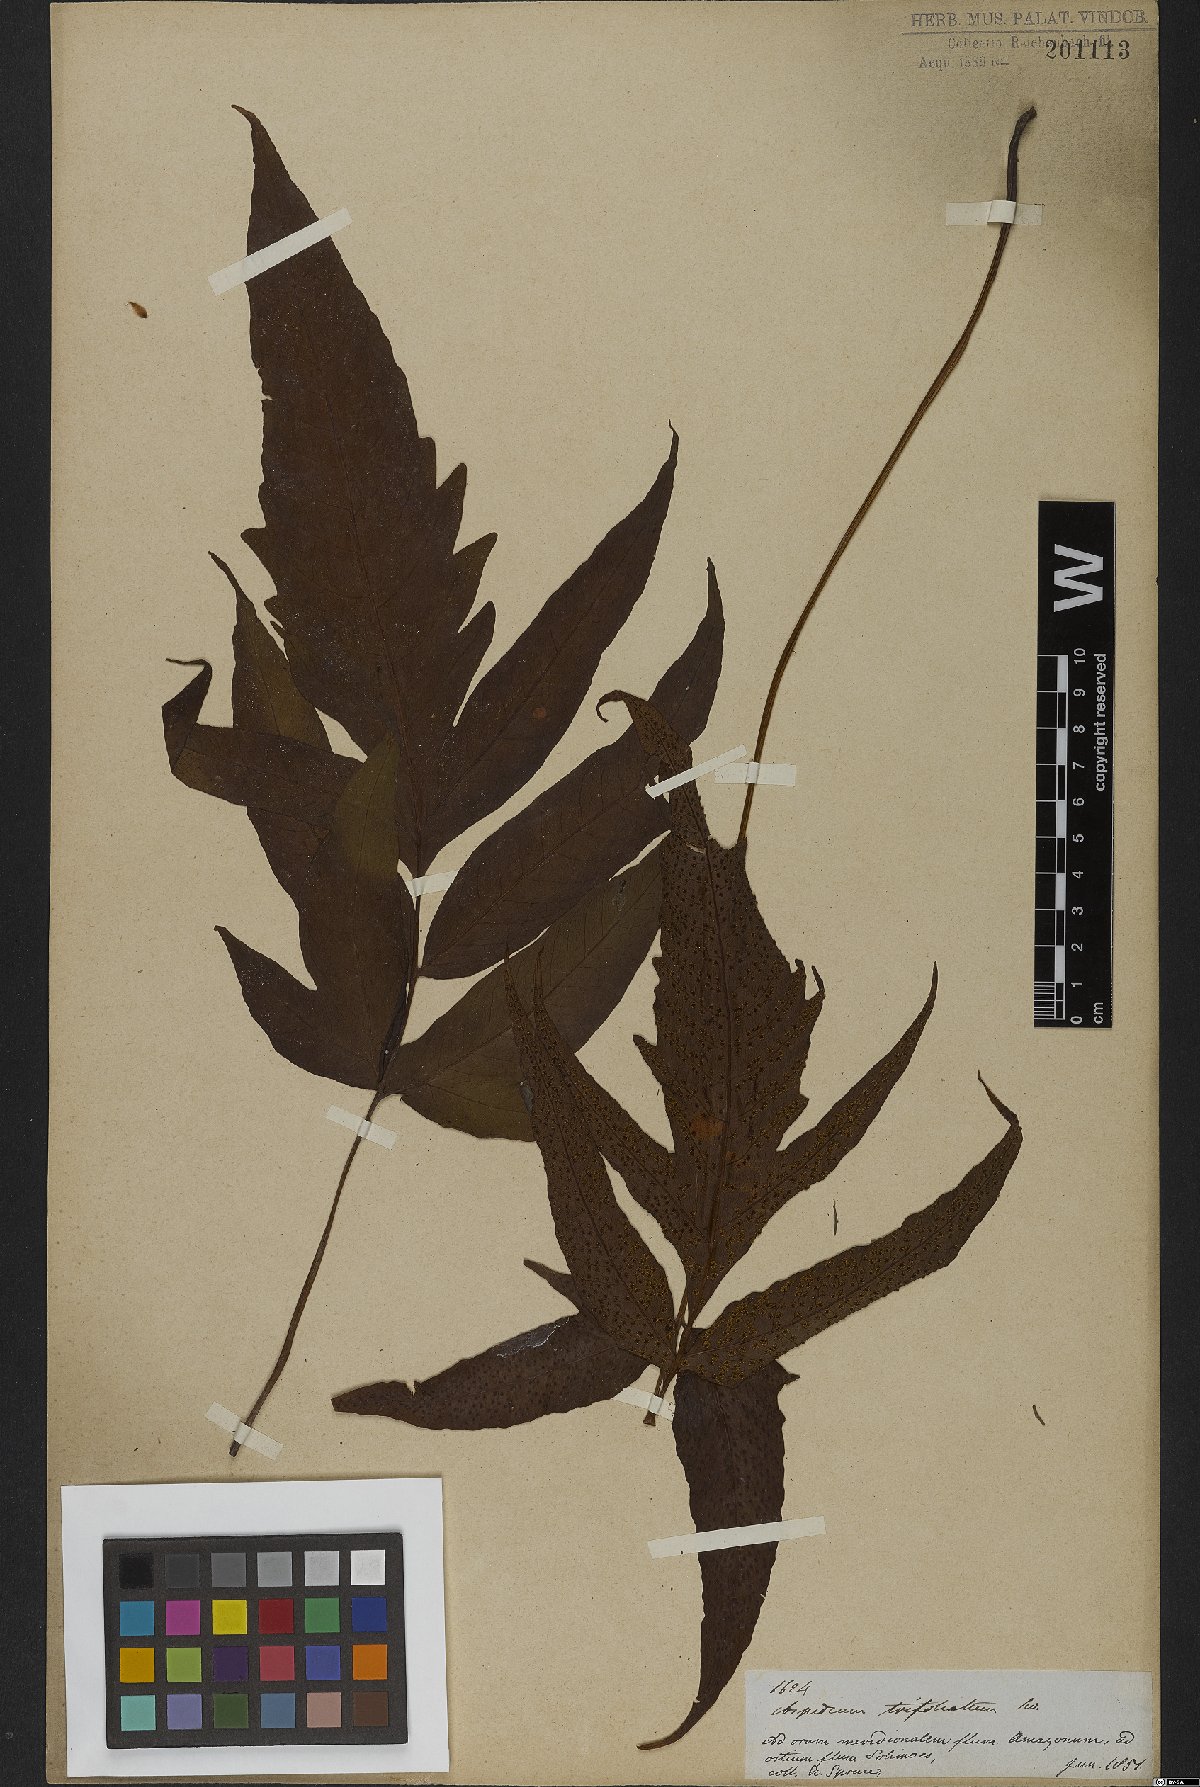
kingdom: Plantae
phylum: Tracheophyta
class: Polypodiopsida
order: Polypodiales
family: Tectariaceae
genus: Tectaria
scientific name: Tectaria trifoliata
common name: Threeleaf halberd fern
